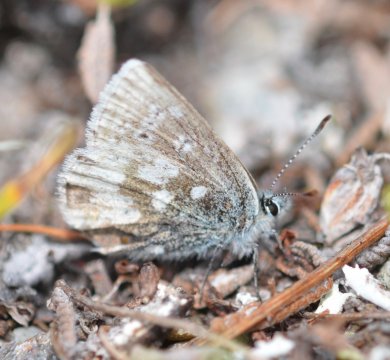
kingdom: Animalia
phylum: Arthropoda
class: Insecta
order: Lepidoptera
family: Lycaenidae
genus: Agriades
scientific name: Agriades glandon
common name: Arctic Blue
